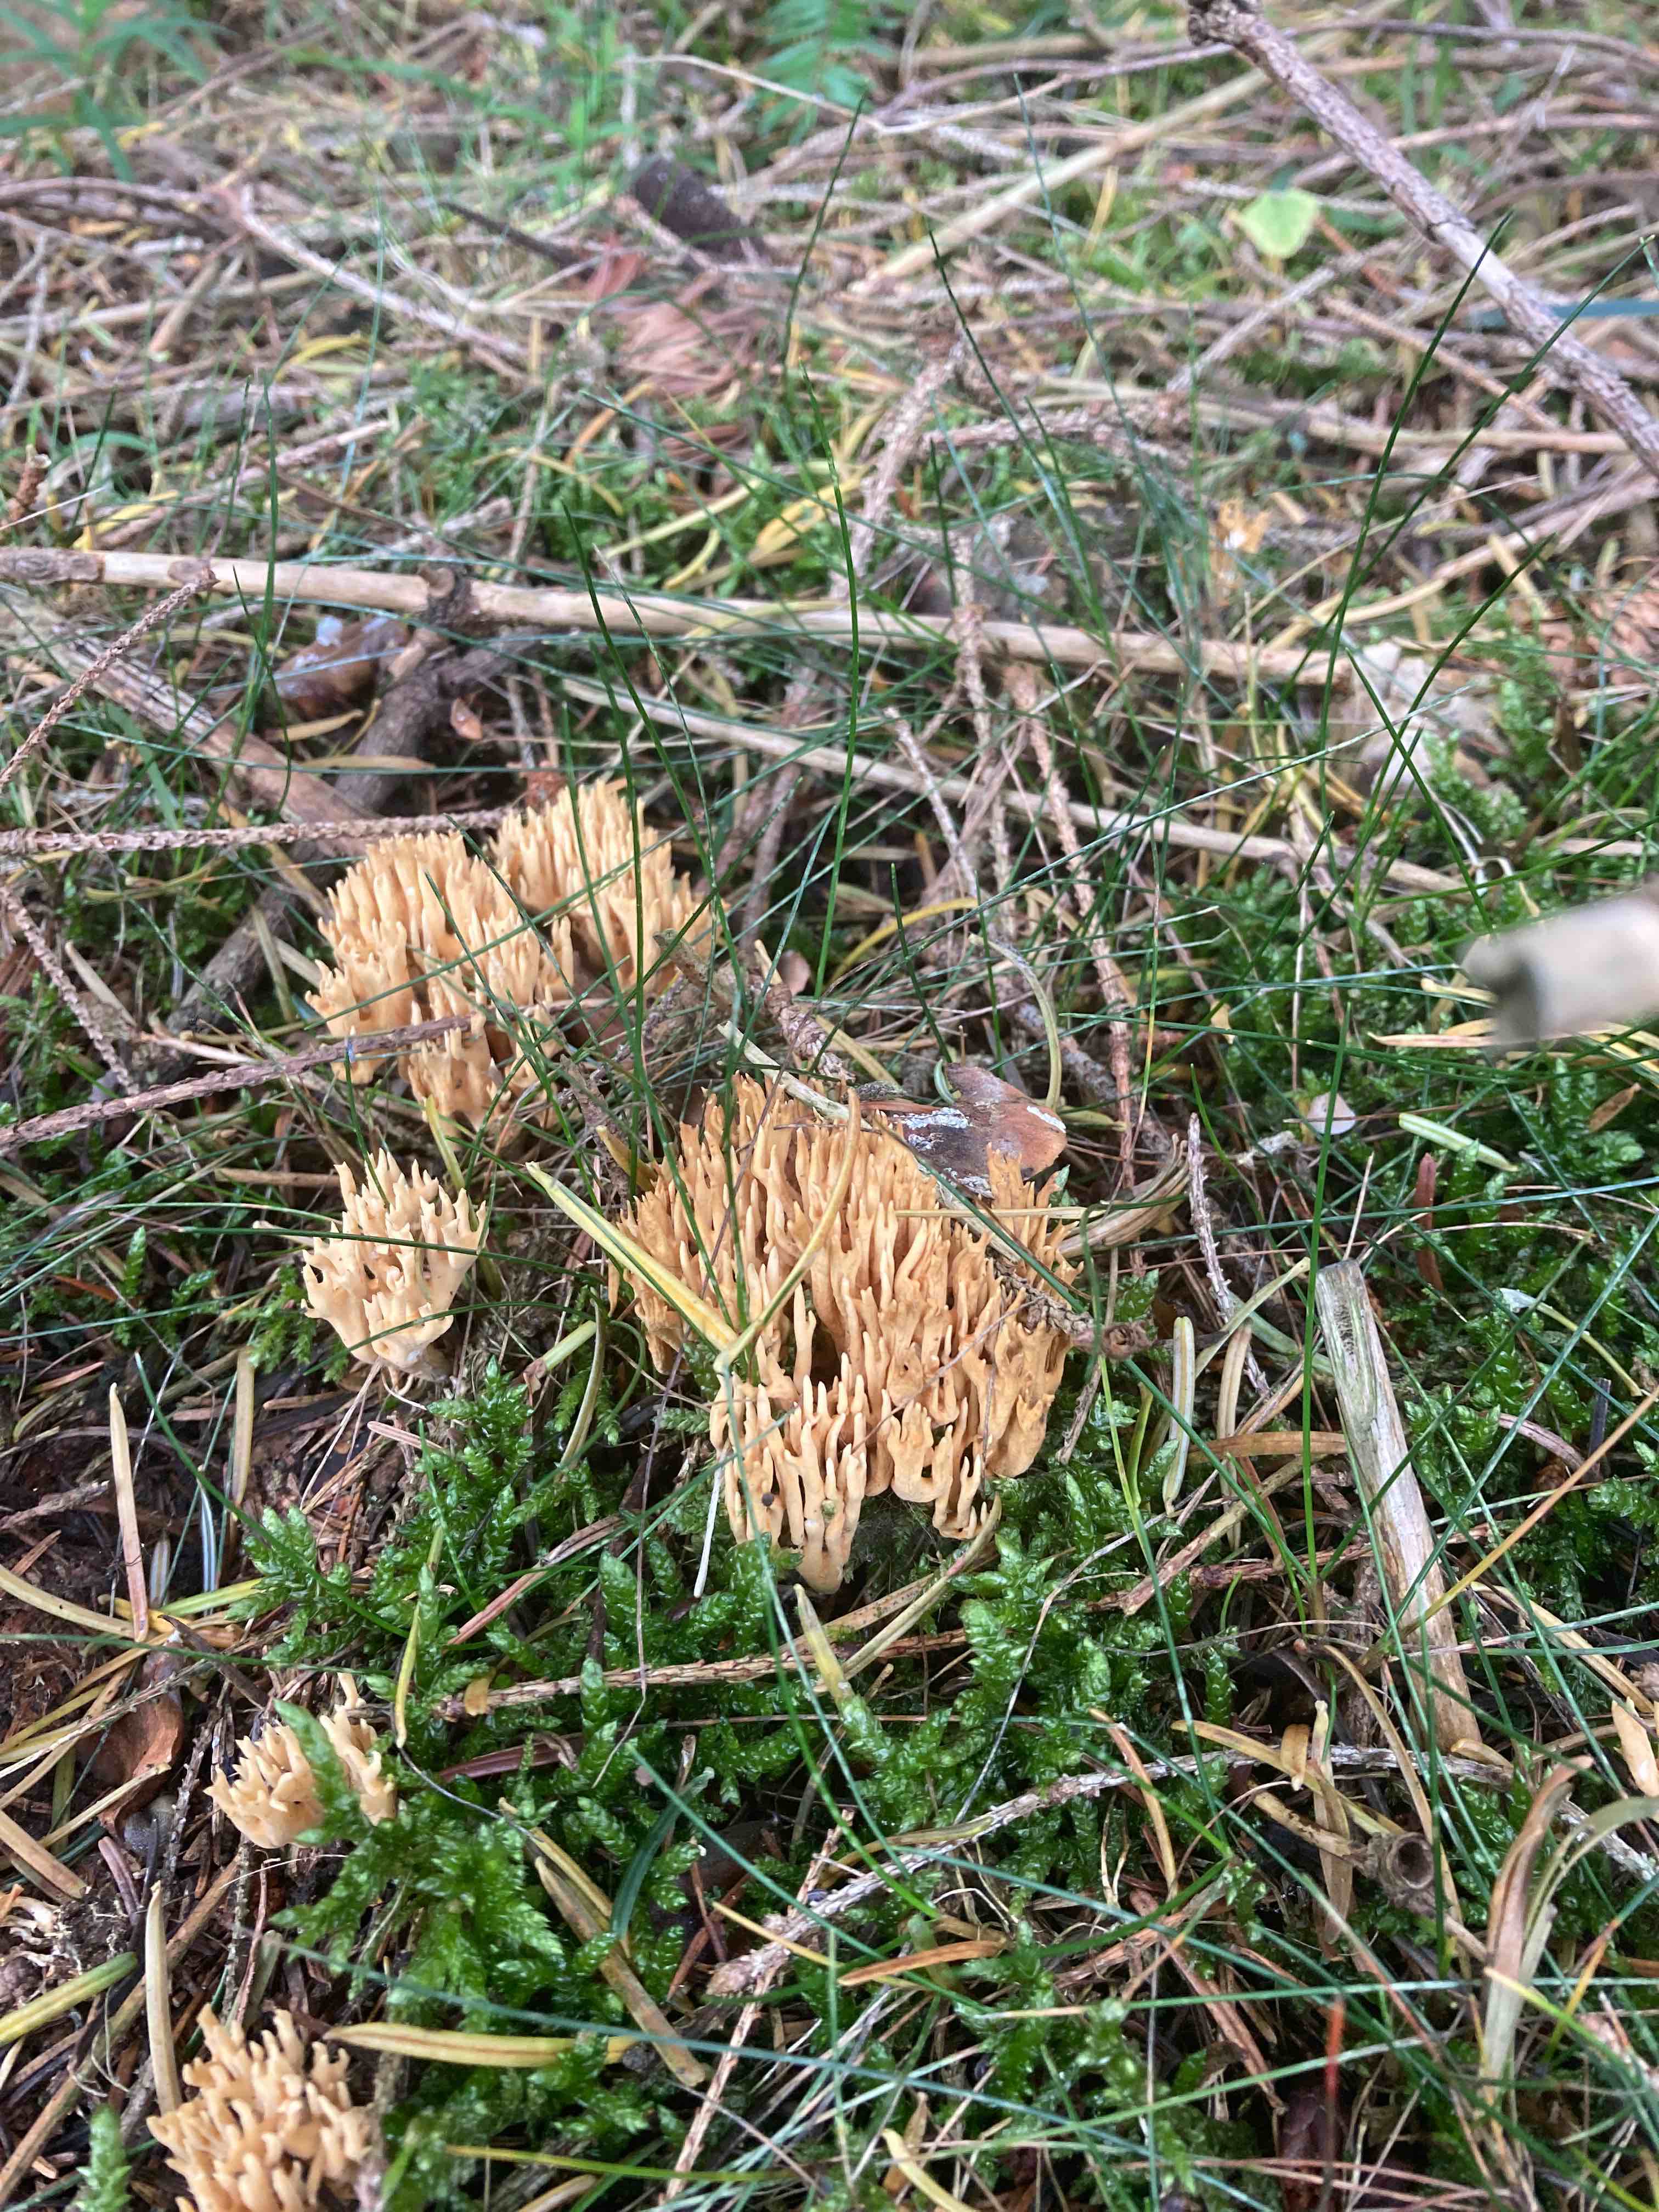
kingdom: Fungi
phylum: Basidiomycota
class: Agaricomycetes
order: Gomphales
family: Gomphaceae
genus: Phaeoclavulina
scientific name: Phaeoclavulina eumorpha
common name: gran-koralsvamp
